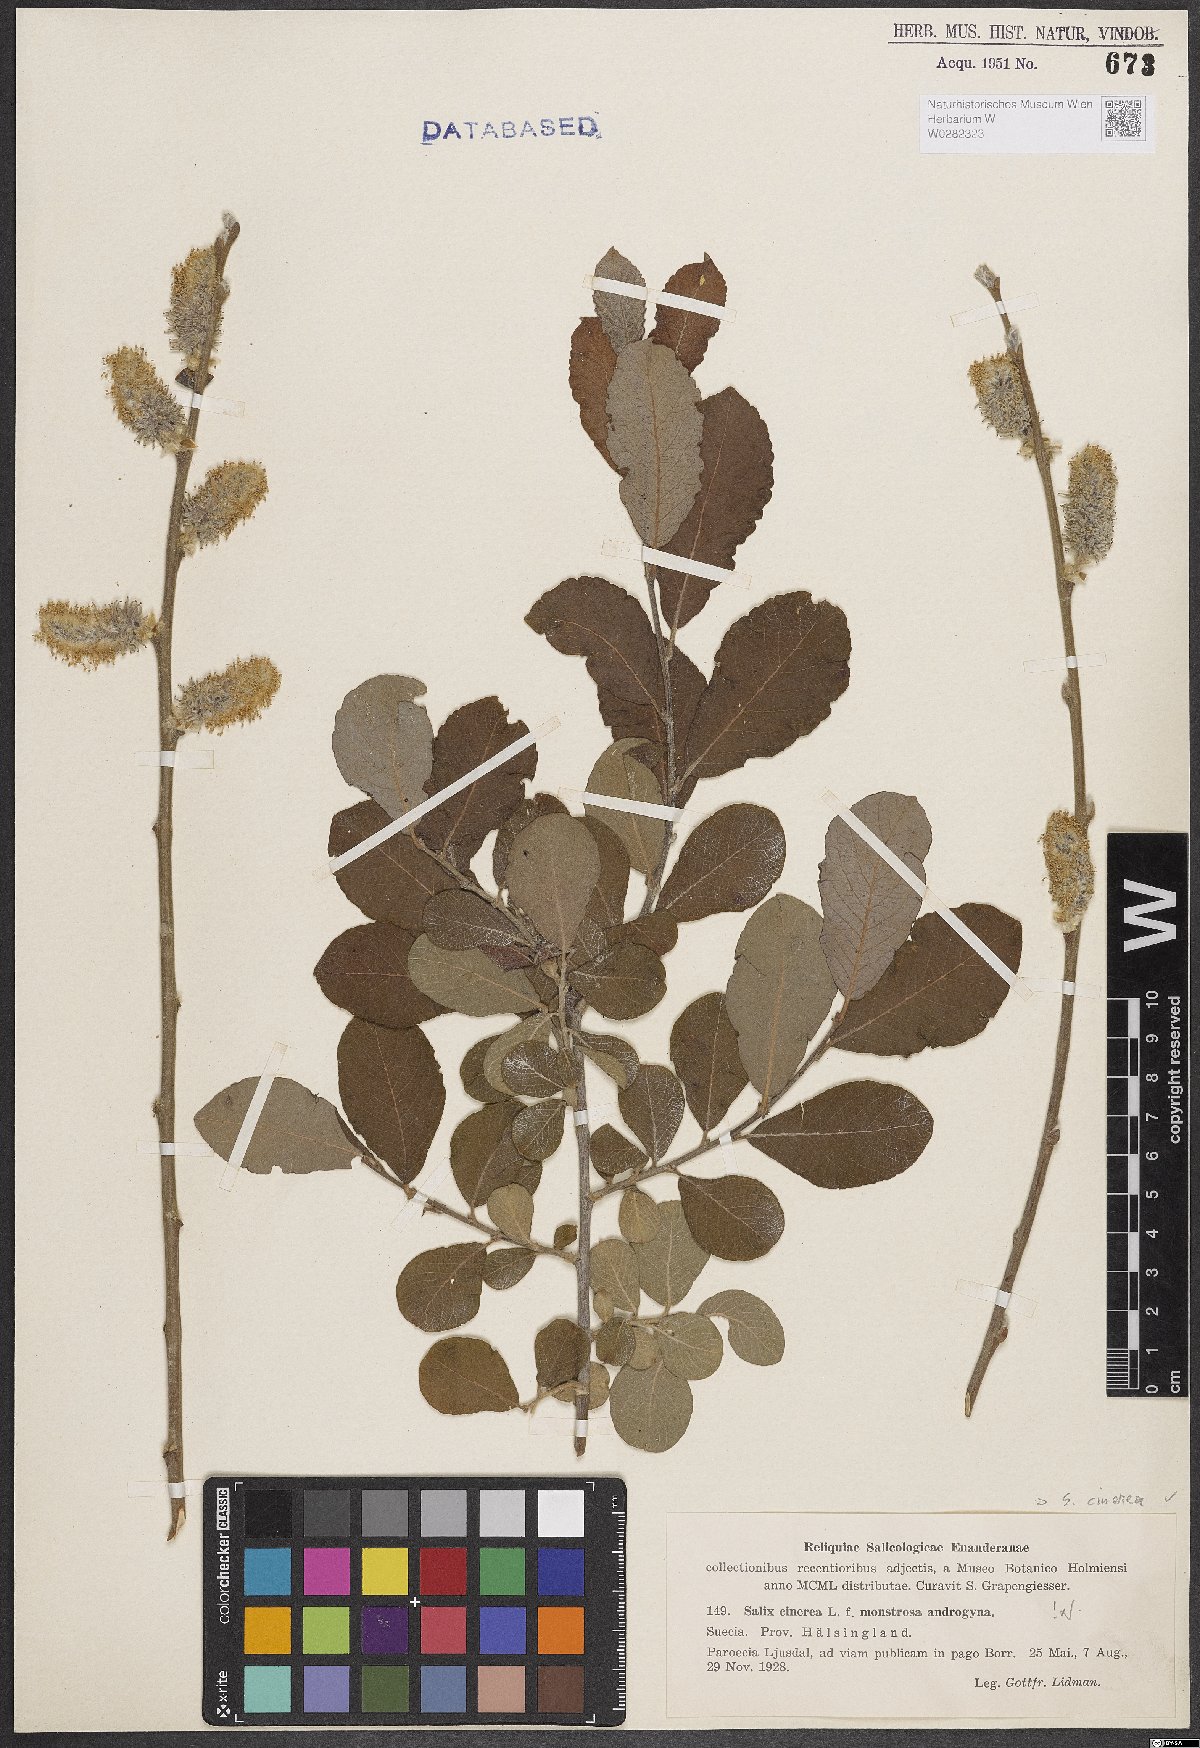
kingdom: Plantae
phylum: Tracheophyta
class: Magnoliopsida
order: Malpighiales
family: Salicaceae
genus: Salix
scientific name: Salix cinerea
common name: Common sallow
